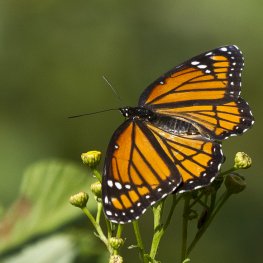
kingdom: Animalia
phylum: Arthropoda
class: Insecta
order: Lepidoptera
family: Nymphalidae
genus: Limenitis
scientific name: Limenitis archippus
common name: Viceroy
